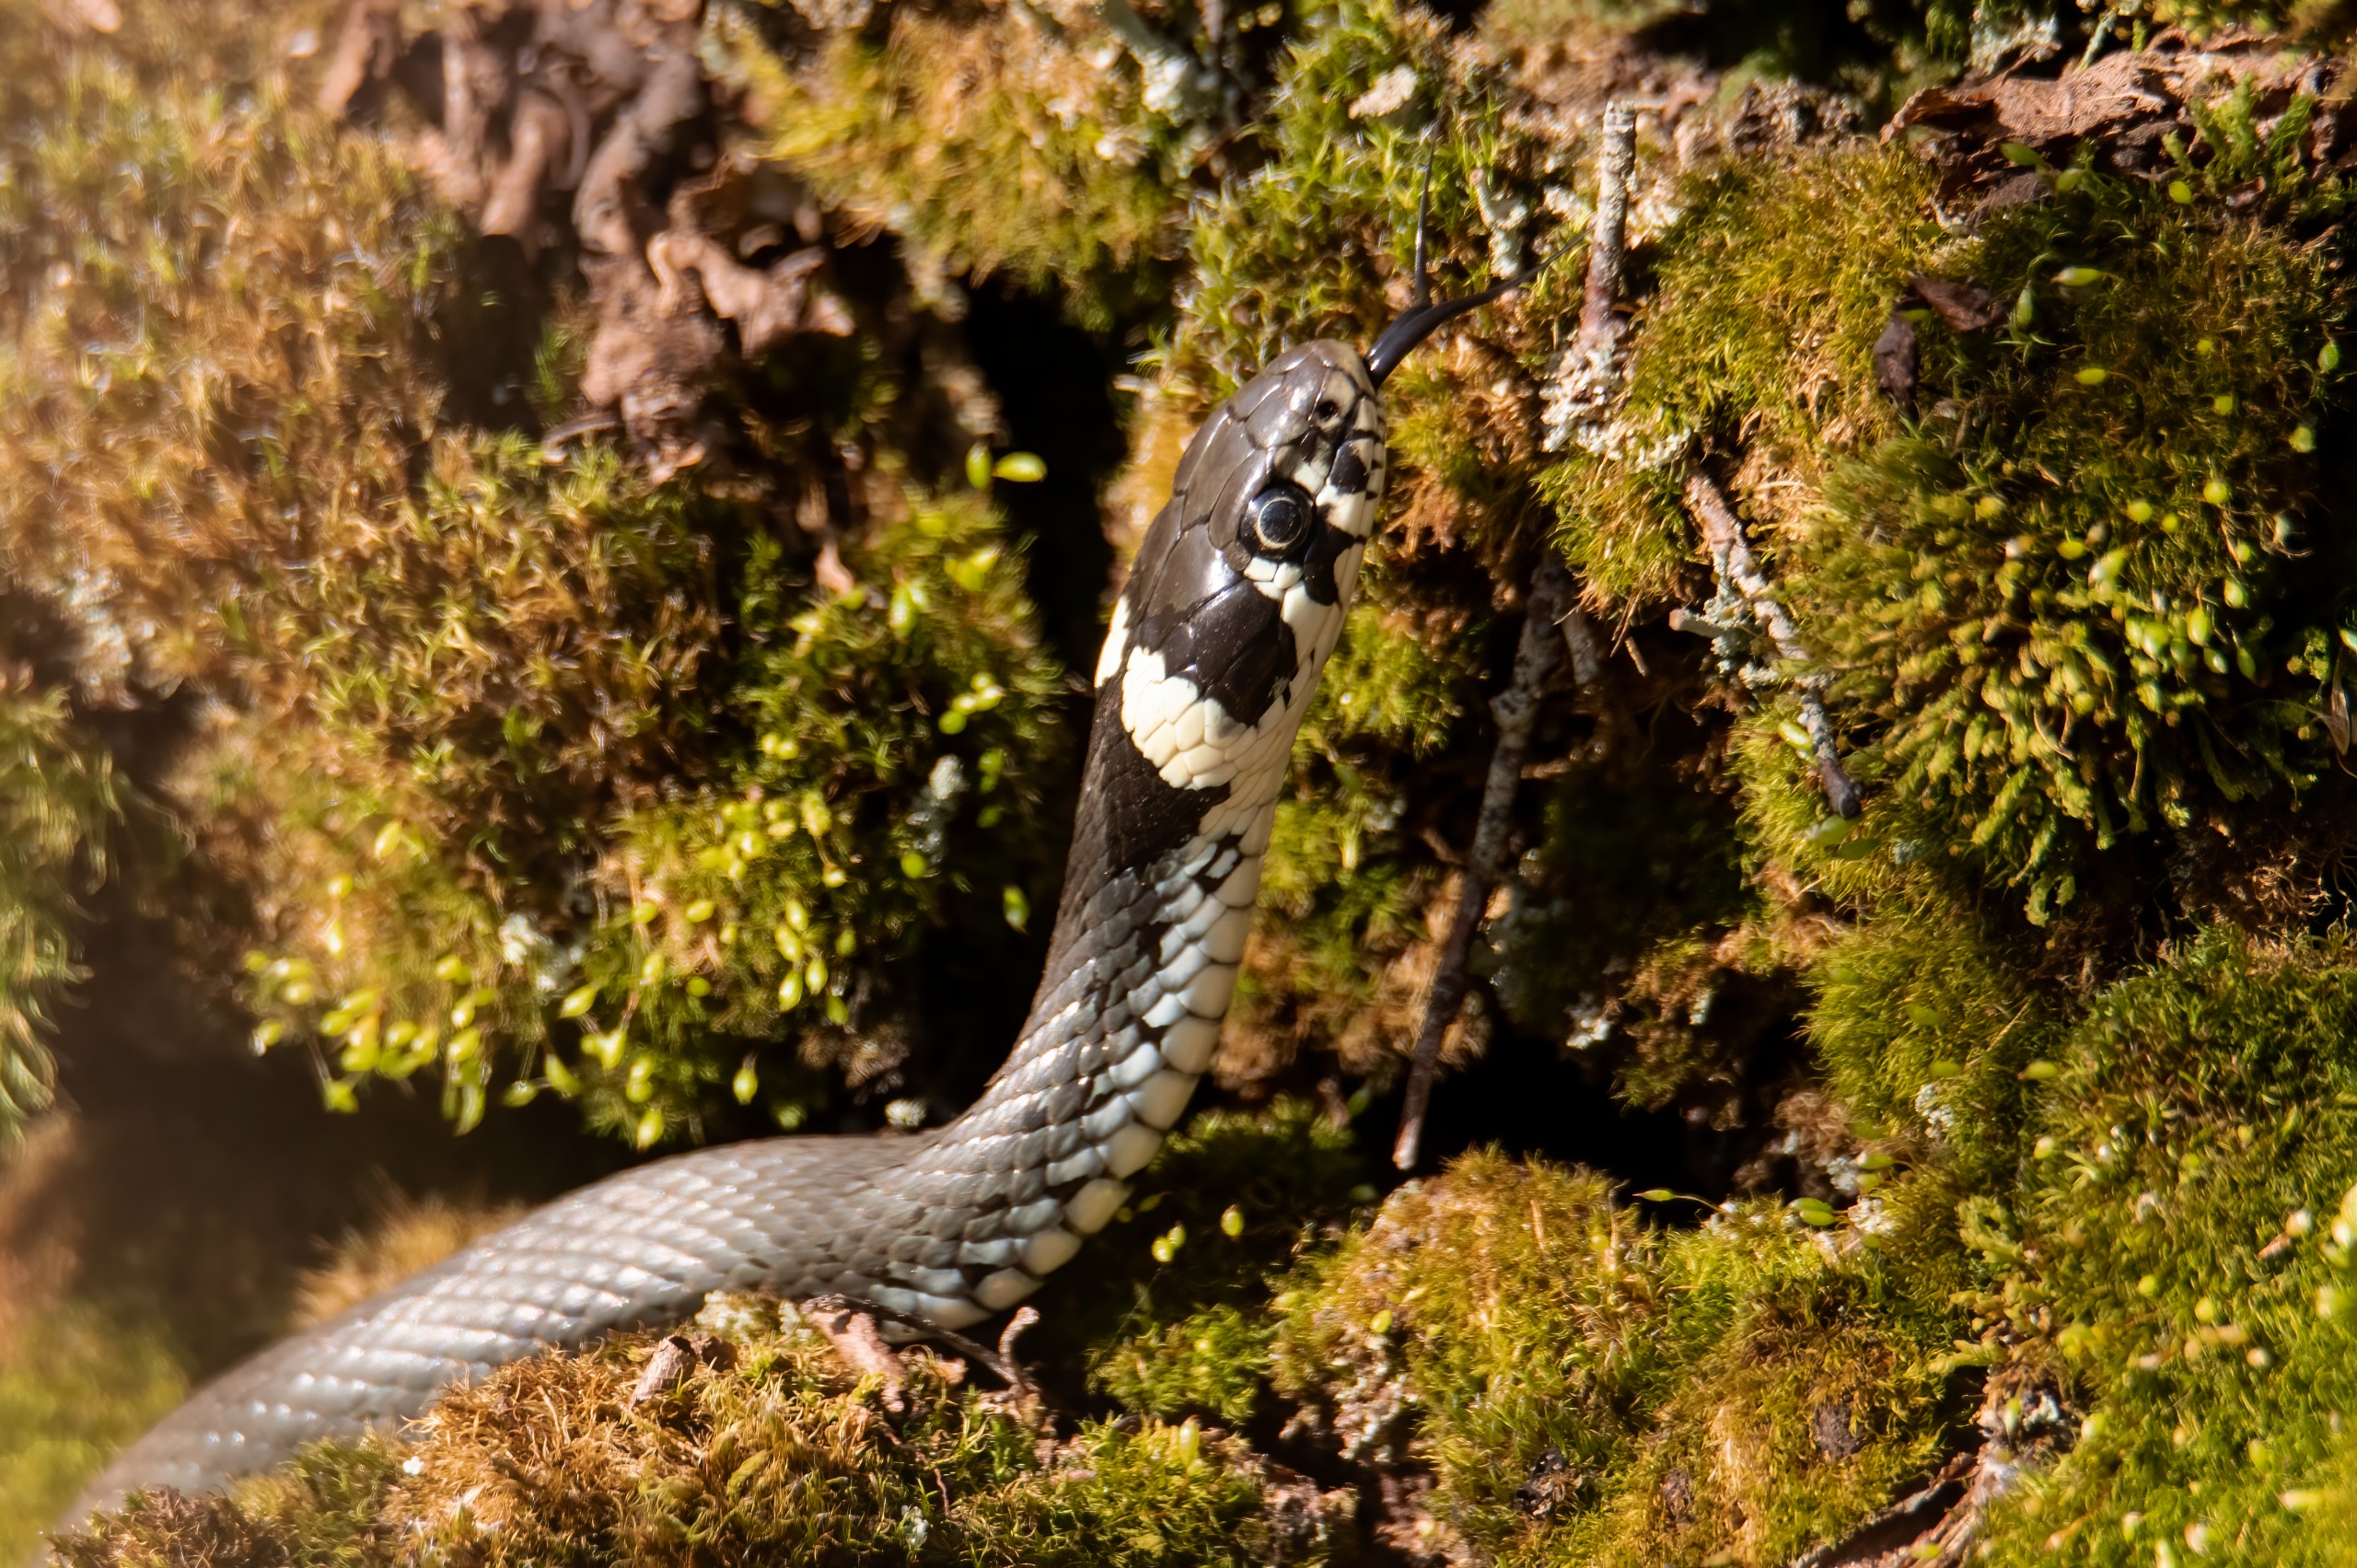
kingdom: Animalia
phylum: Chordata
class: Squamata
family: Colubridae
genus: Natrix
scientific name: Natrix natrix
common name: Snog
